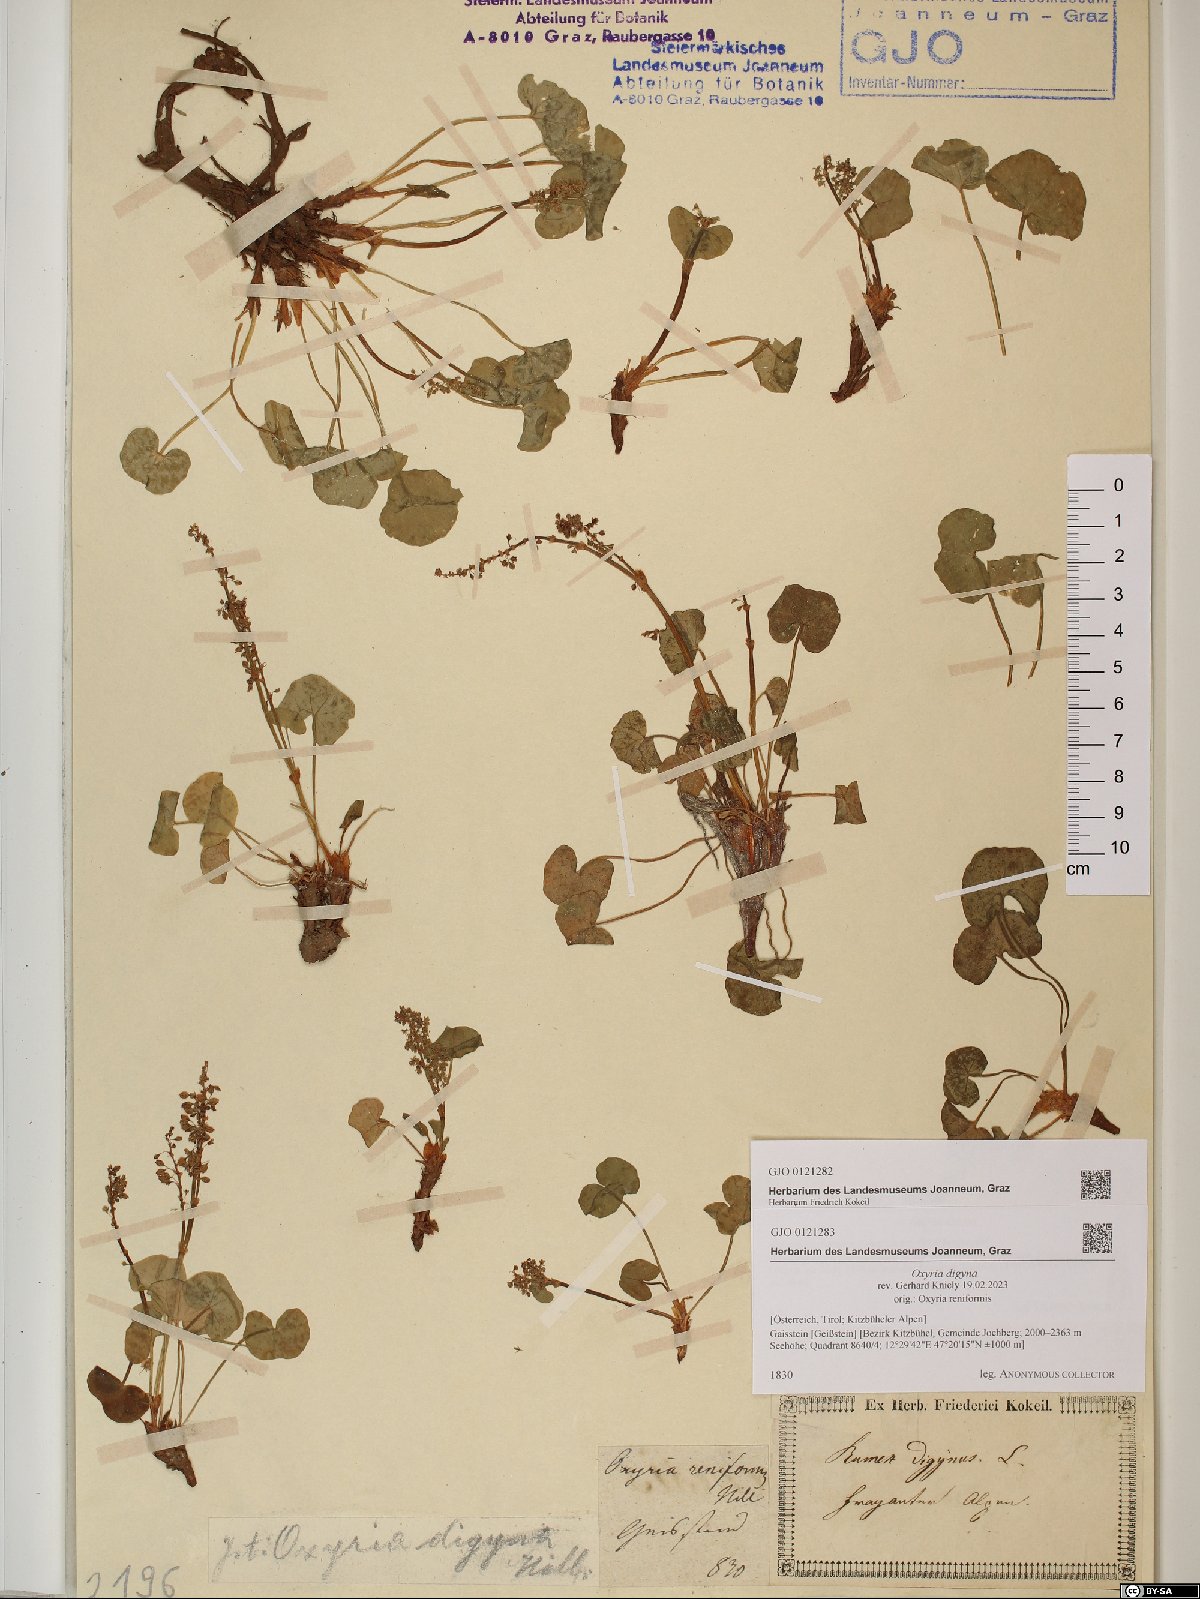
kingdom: Plantae
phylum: Tracheophyta
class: Magnoliopsida
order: Caryophyllales
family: Polygonaceae
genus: Oxyria
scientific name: Oxyria digyna
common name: Alpine mountain-sorrel
